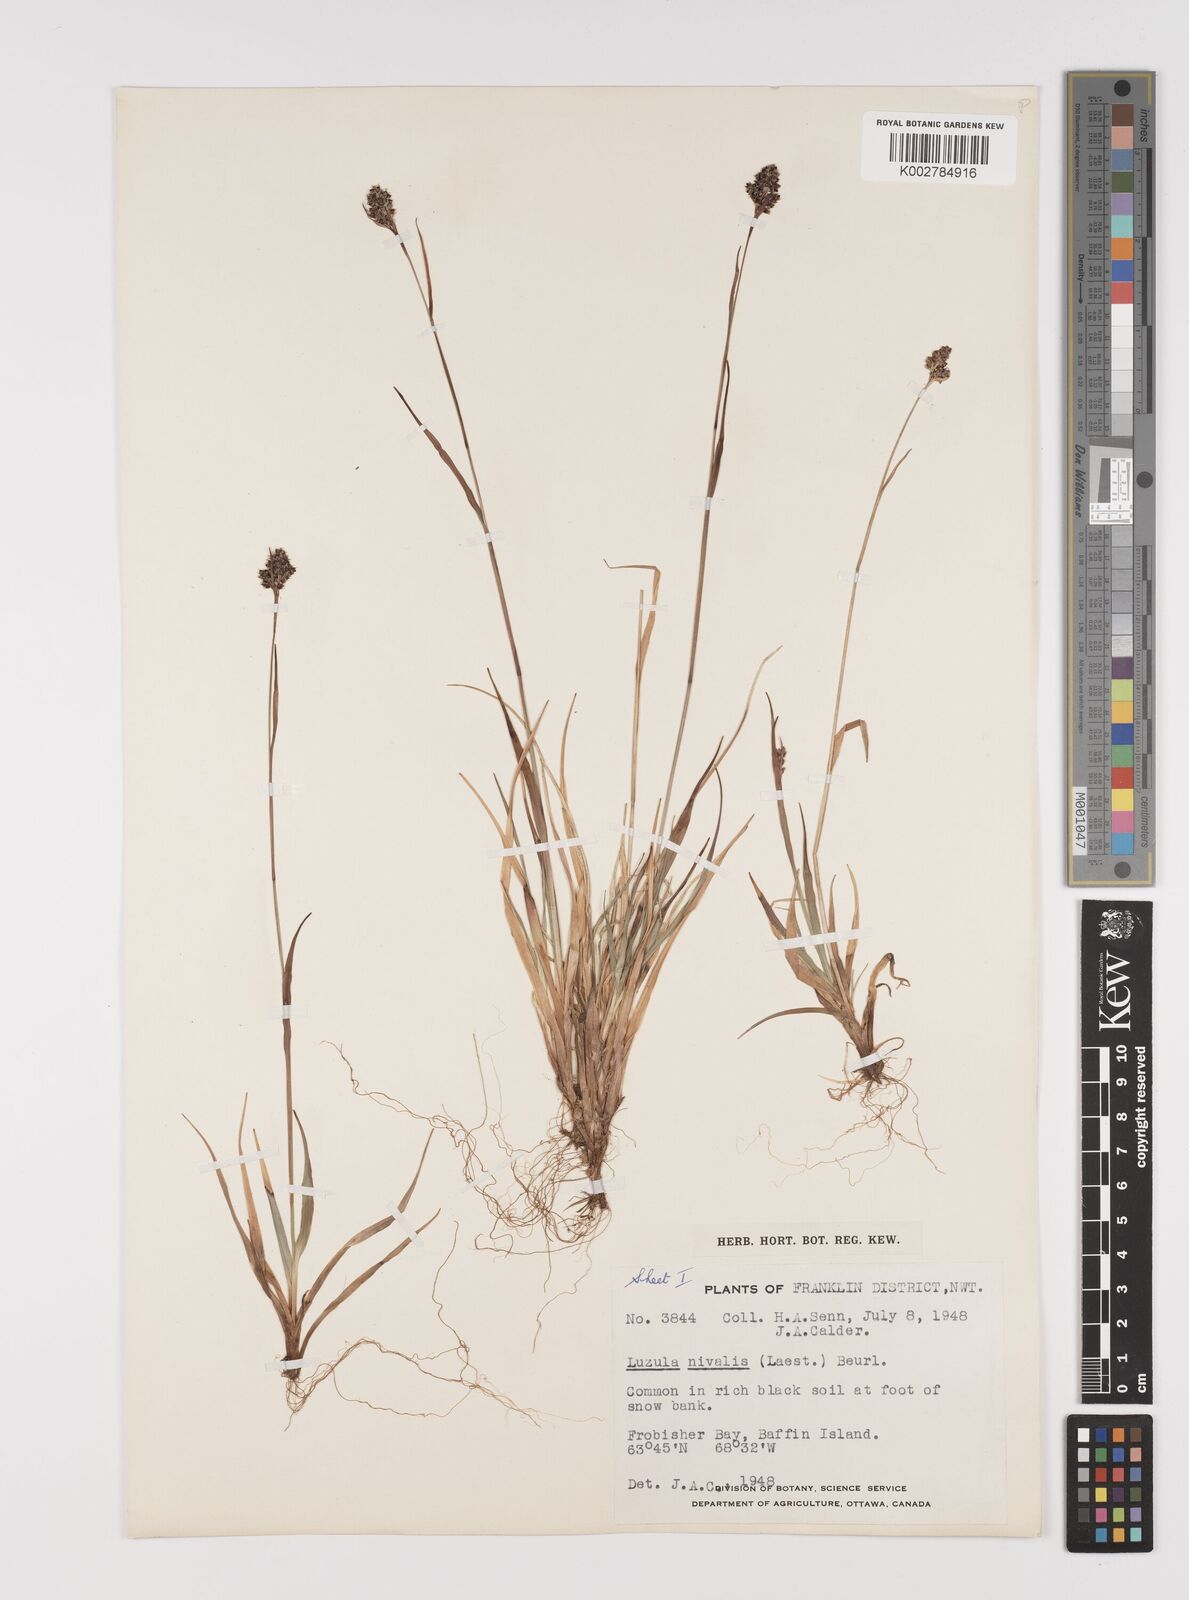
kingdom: Plantae
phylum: Tracheophyta
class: Liliopsida
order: Poales
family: Juncaceae
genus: Luzula
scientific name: Luzula nivalis
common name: Arctic woodrush
